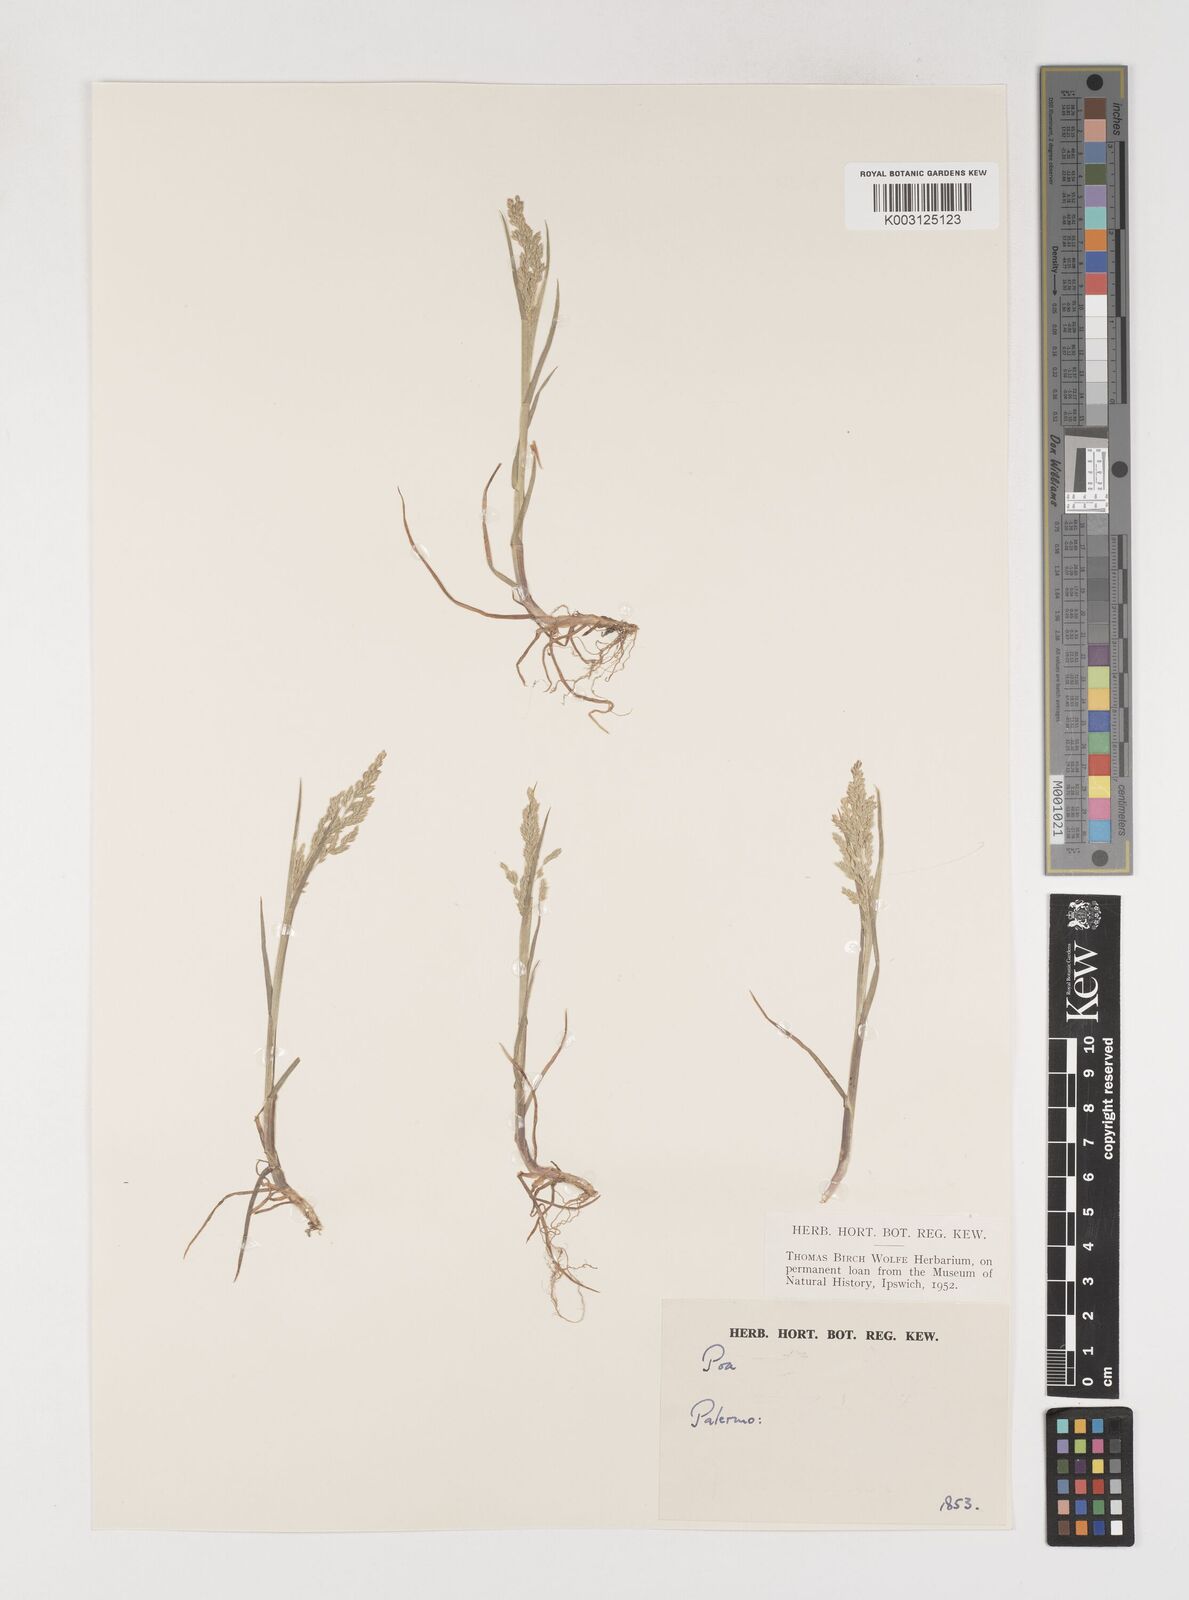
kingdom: Plantae
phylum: Tracheophyta
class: Liliopsida
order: Poales
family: Poaceae
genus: Poa
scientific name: Poa trivialis
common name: Rough bluegrass
